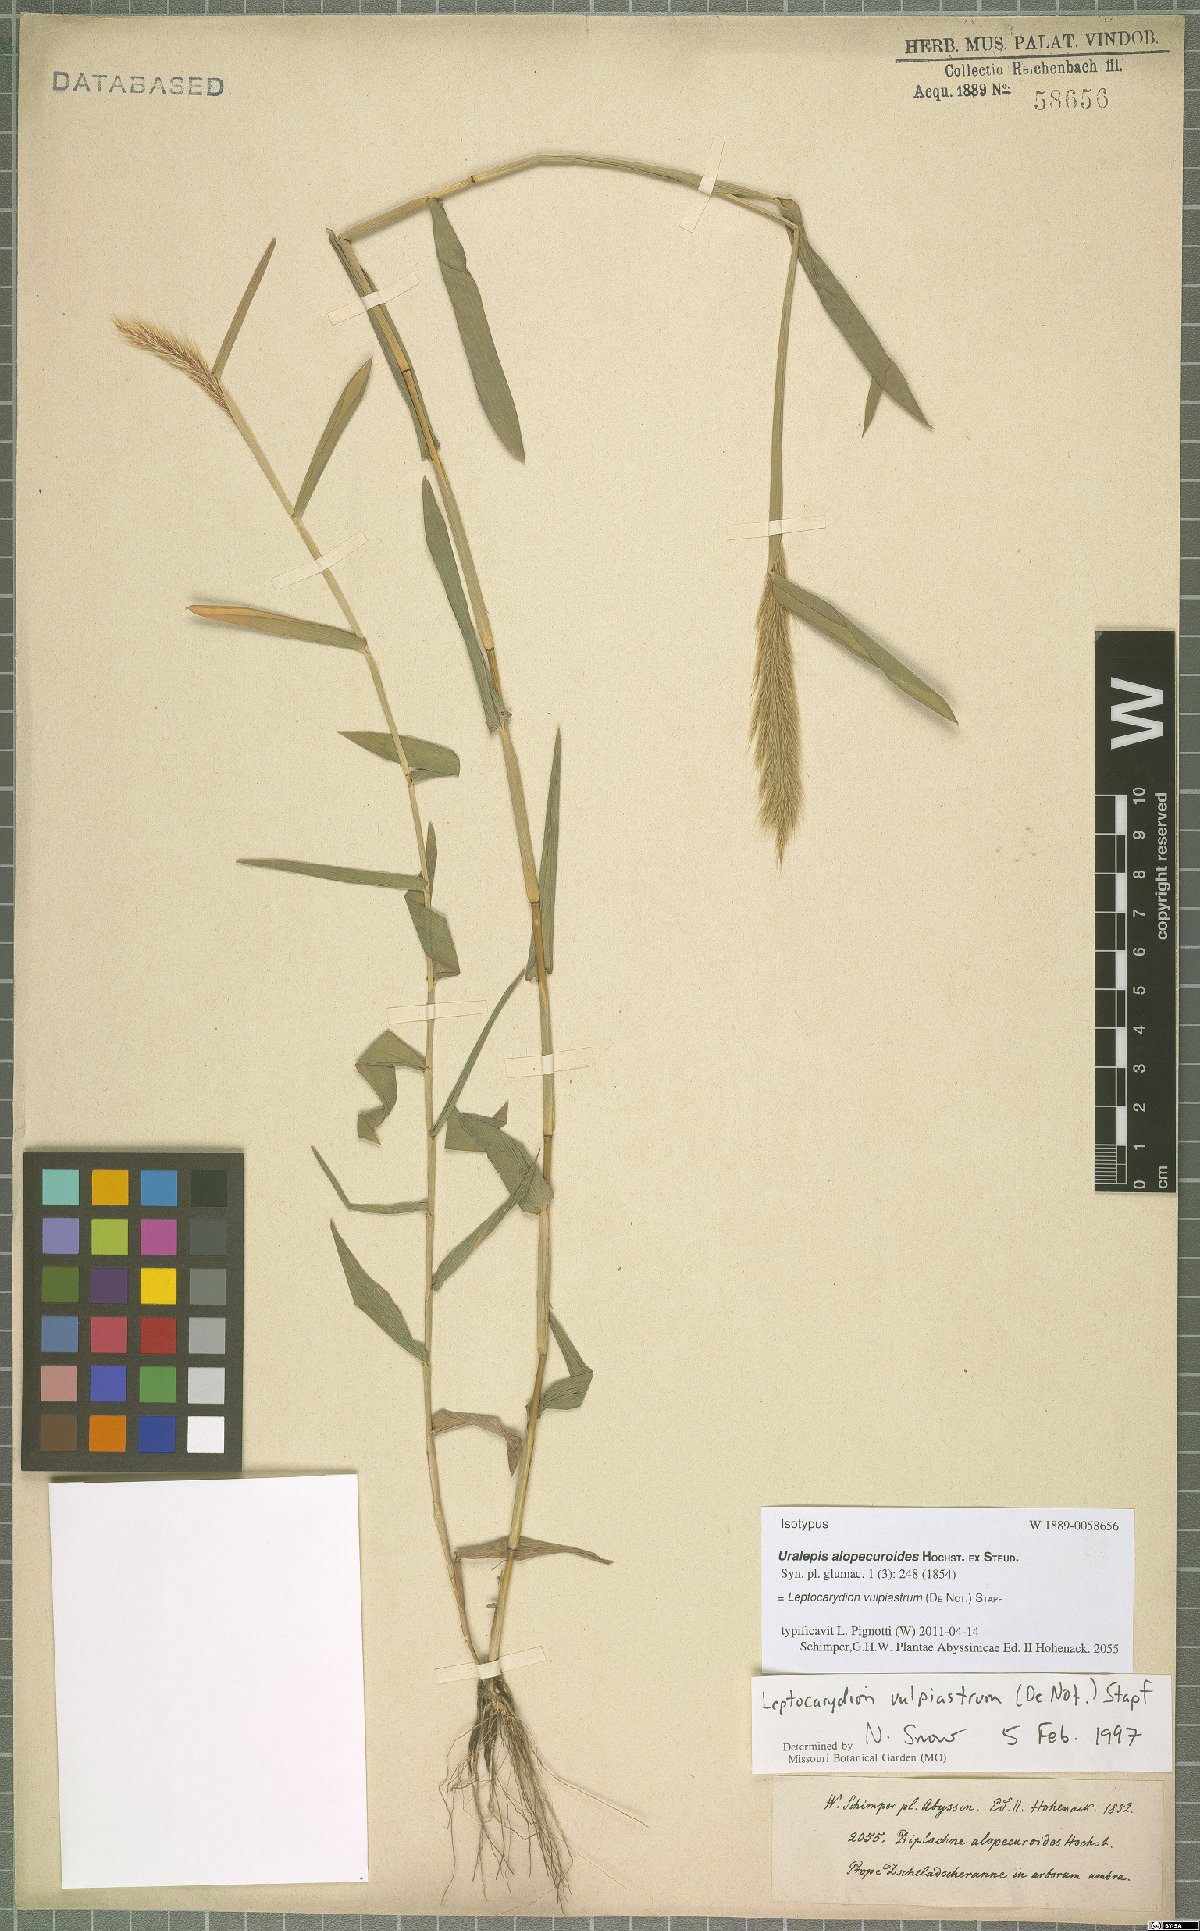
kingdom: Plantae
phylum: Tracheophyta
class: Liliopsida
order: Poales
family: Poaceae
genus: Leptocarydion
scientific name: Leptocarydion vulpiastrum
